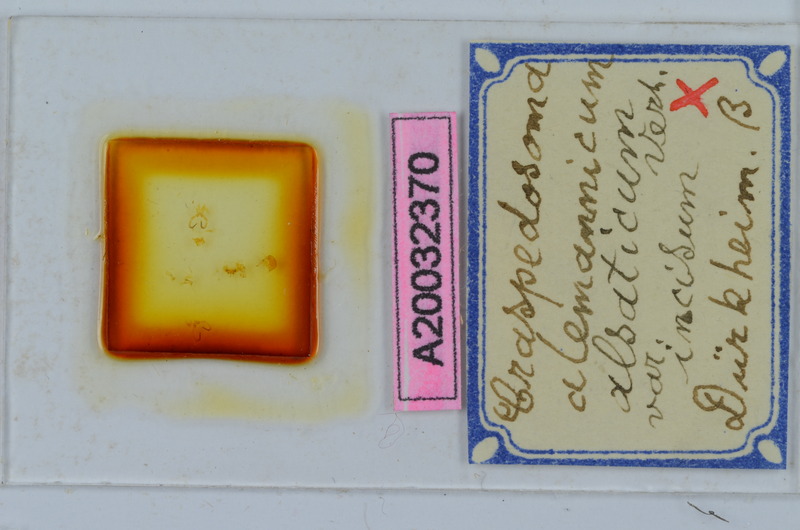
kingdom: Animalia
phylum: Arthropoda
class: Diplopoda
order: Chordeumatida
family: Craspedosomatidae
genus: Craspedosoma
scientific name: Craspedosoma rawlinsii
